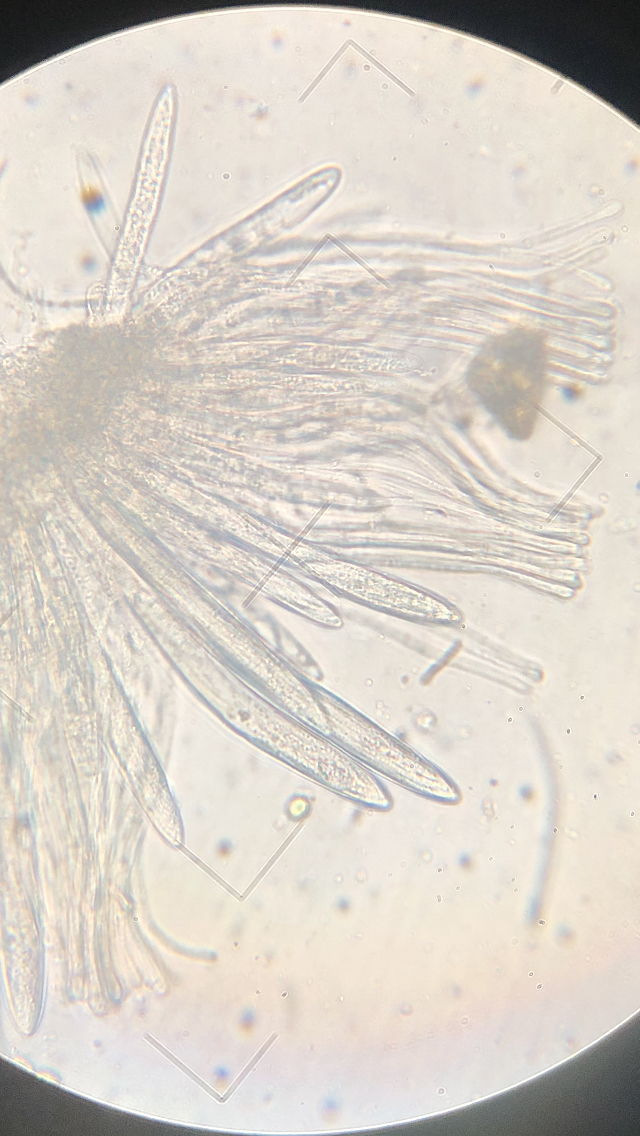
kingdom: Fungi
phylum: Ascomycota
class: Leotiomycetes
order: Rhytismatales
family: Rhytismataceae
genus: Lophodermium
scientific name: Lophodermium pinastri
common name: fyrre-fureplet
